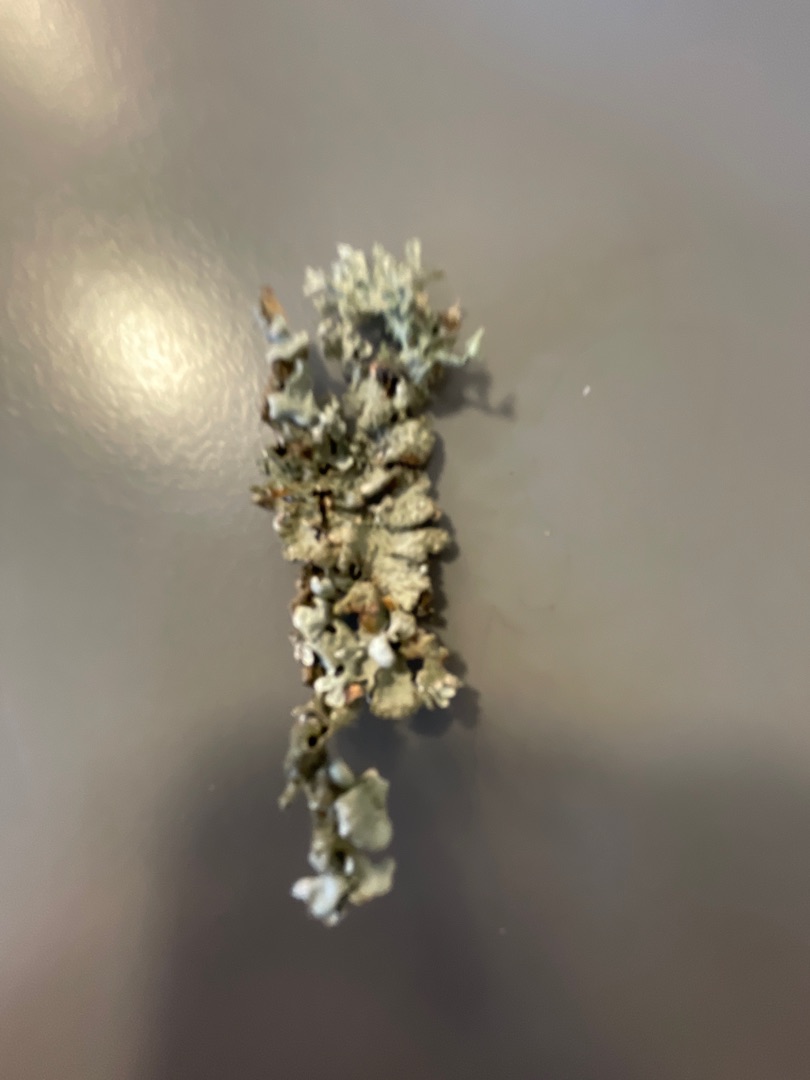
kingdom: Fungi
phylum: Ascomycota
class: Lecanoromycetes
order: Lecanorales
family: Parmeliaceae
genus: Parmelia
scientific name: Parmelia sulcata
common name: Rynket skållav
